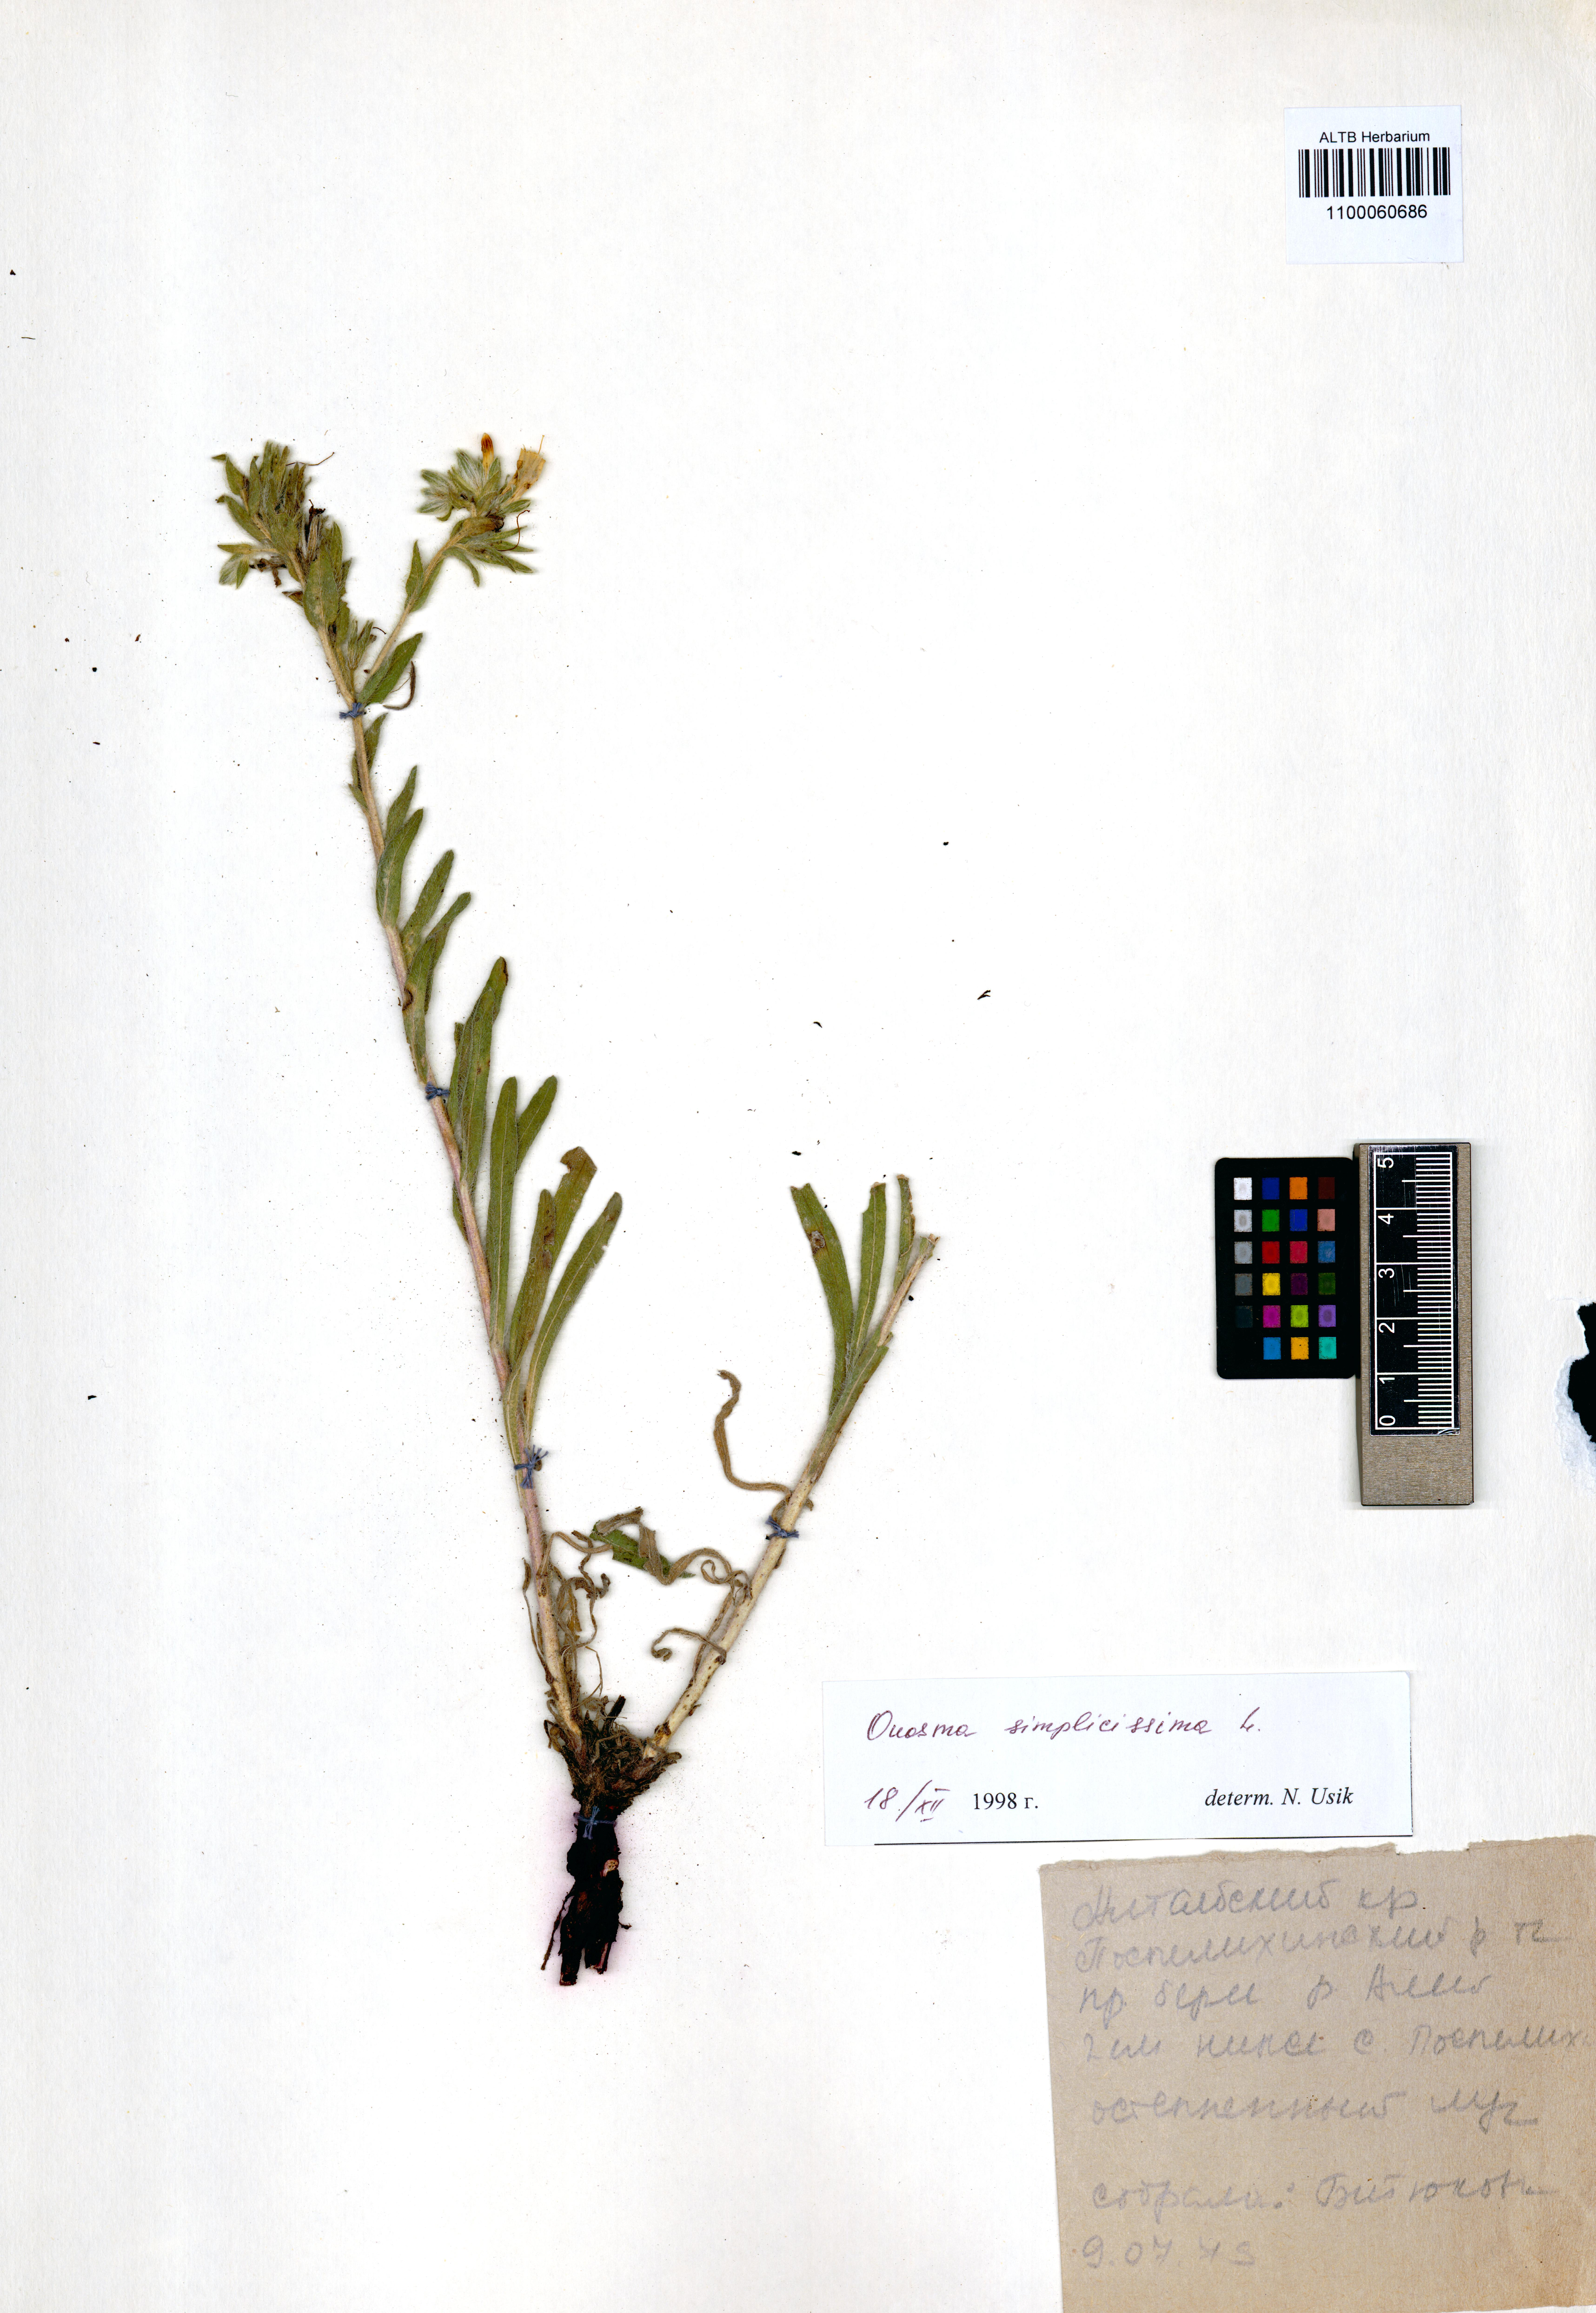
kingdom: Plantae
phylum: Tracheophyta
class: Magnoliopsida
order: Boraginales
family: Boraginaceae
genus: Onosma
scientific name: Onosma simplicissima
